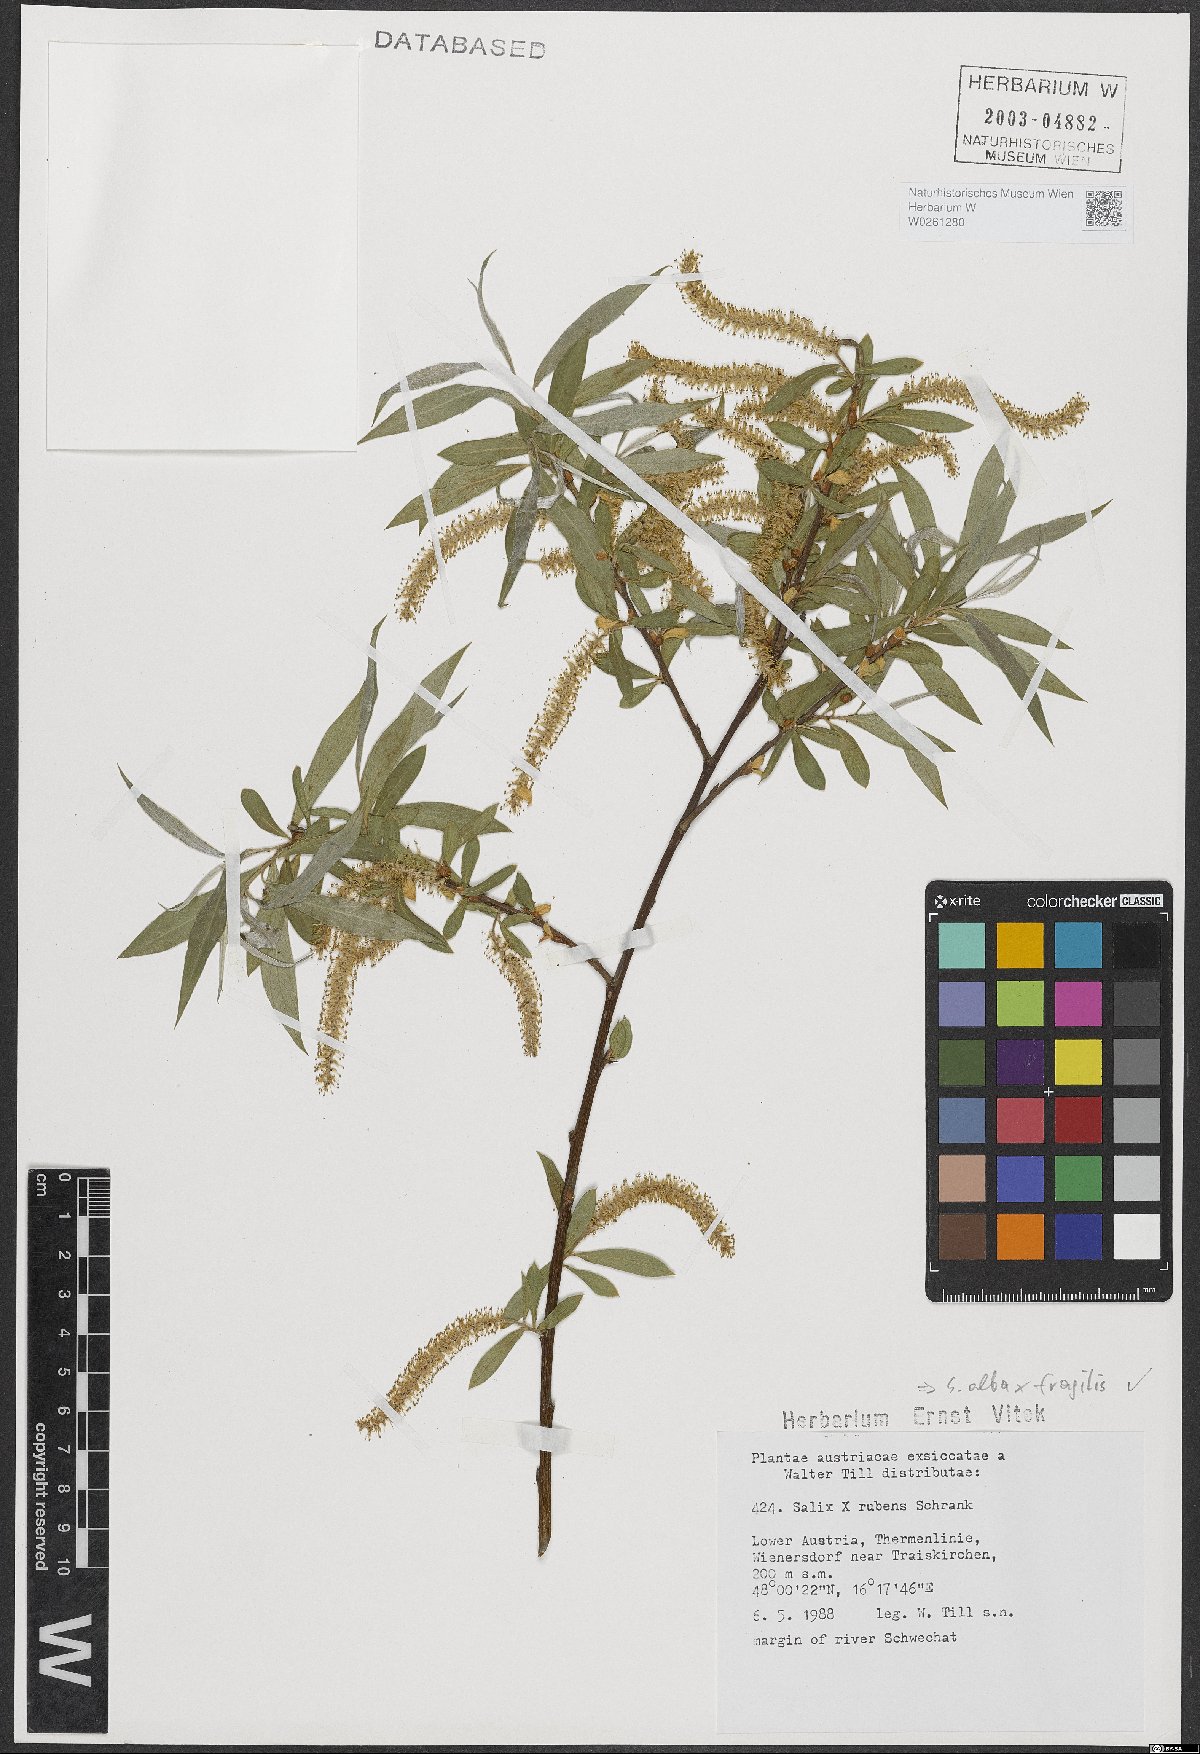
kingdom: Plantae
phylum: Tracheophyta
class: Magnoliopsida
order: Malpighiales
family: Salicaceae
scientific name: Salicaceae
